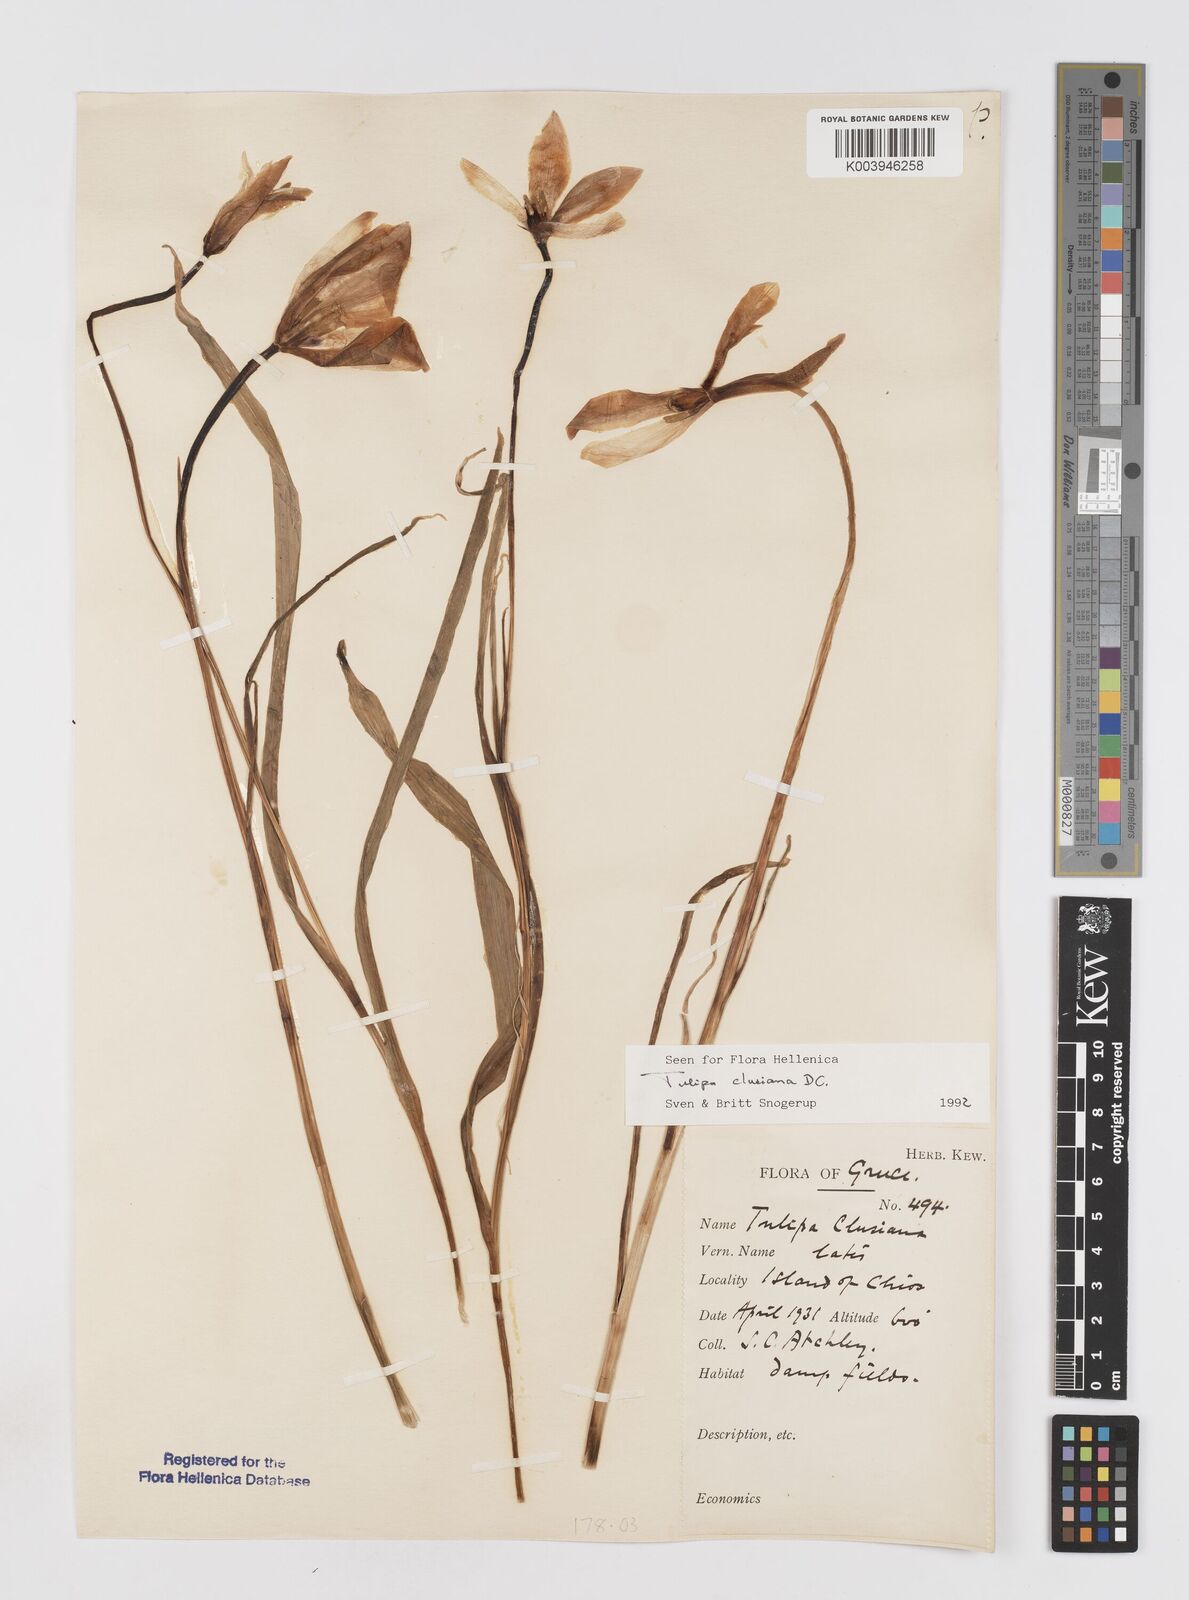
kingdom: Plantae
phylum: Tracheophyta
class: Liliopsida
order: Liliales
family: Liliaceae
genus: Tulipa
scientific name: Tulipa clusiana
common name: Lady tulip
